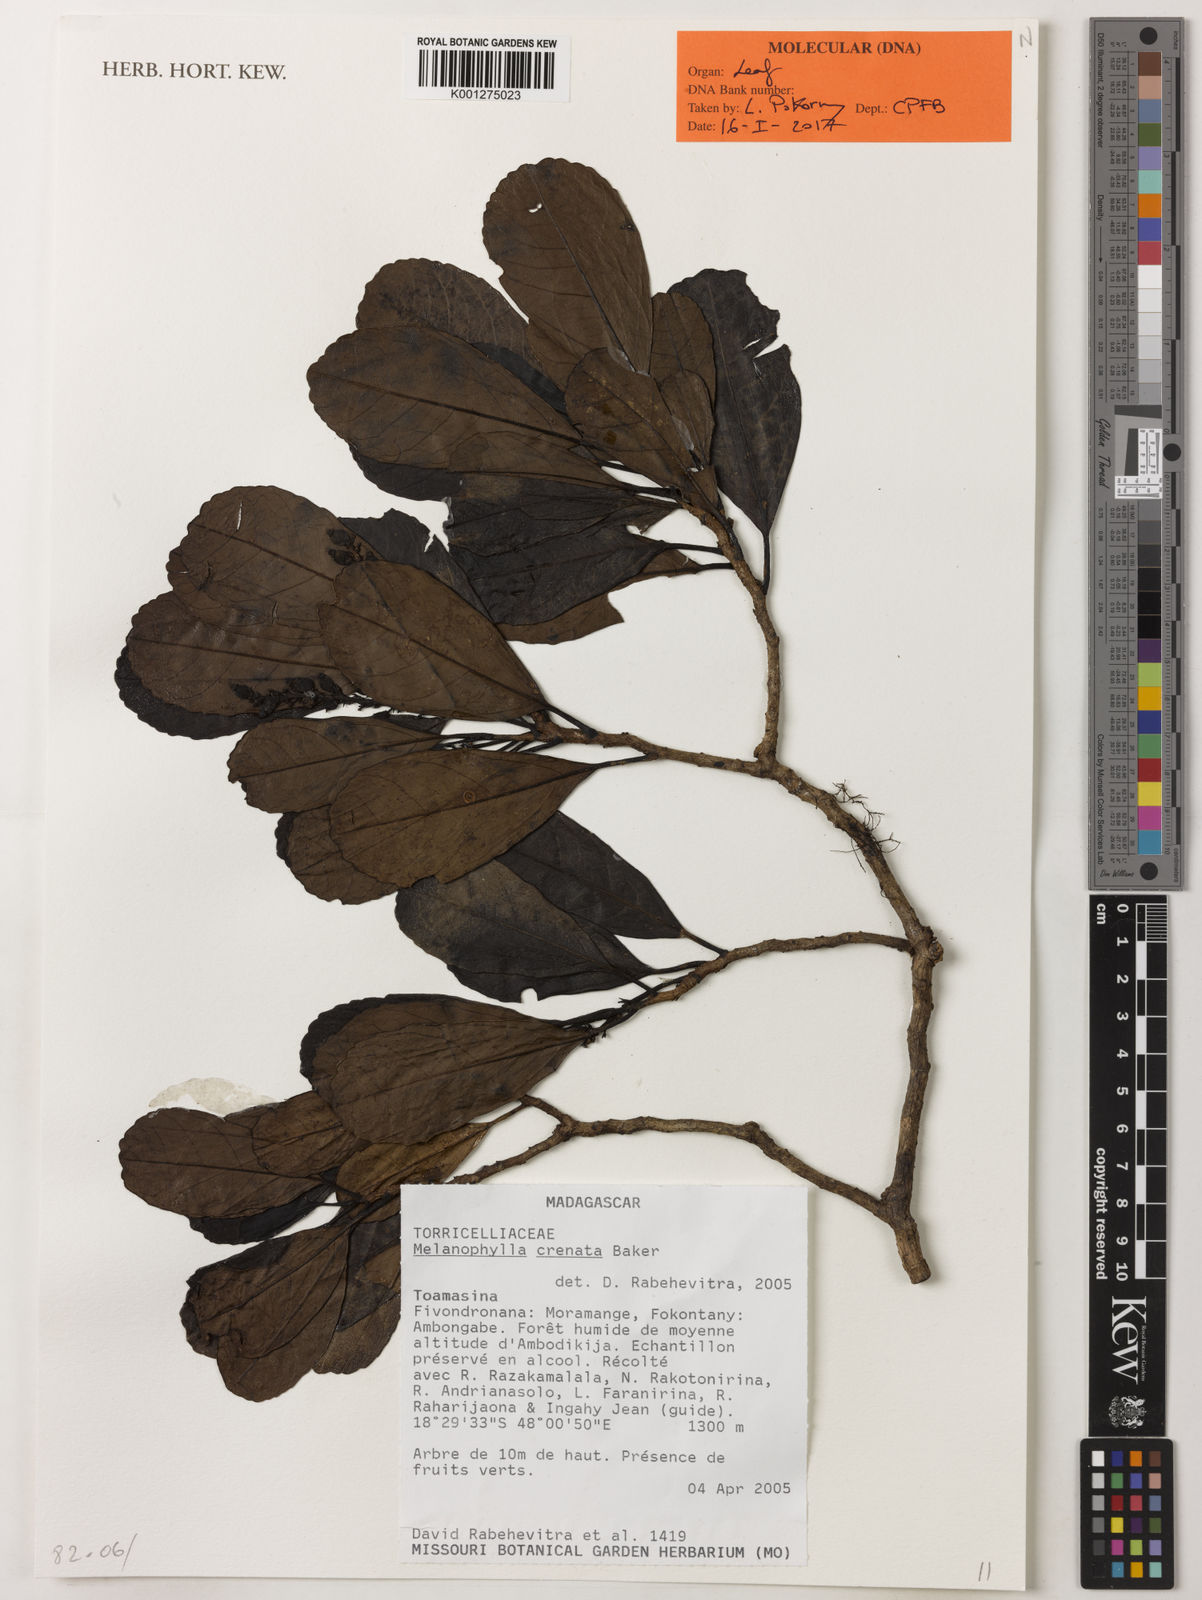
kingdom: Plantae
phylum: Tracheophyta
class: Magnoliopsida
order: Apiales
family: Torricelliaceae
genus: Melanophylla
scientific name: Melanophylla crenata
